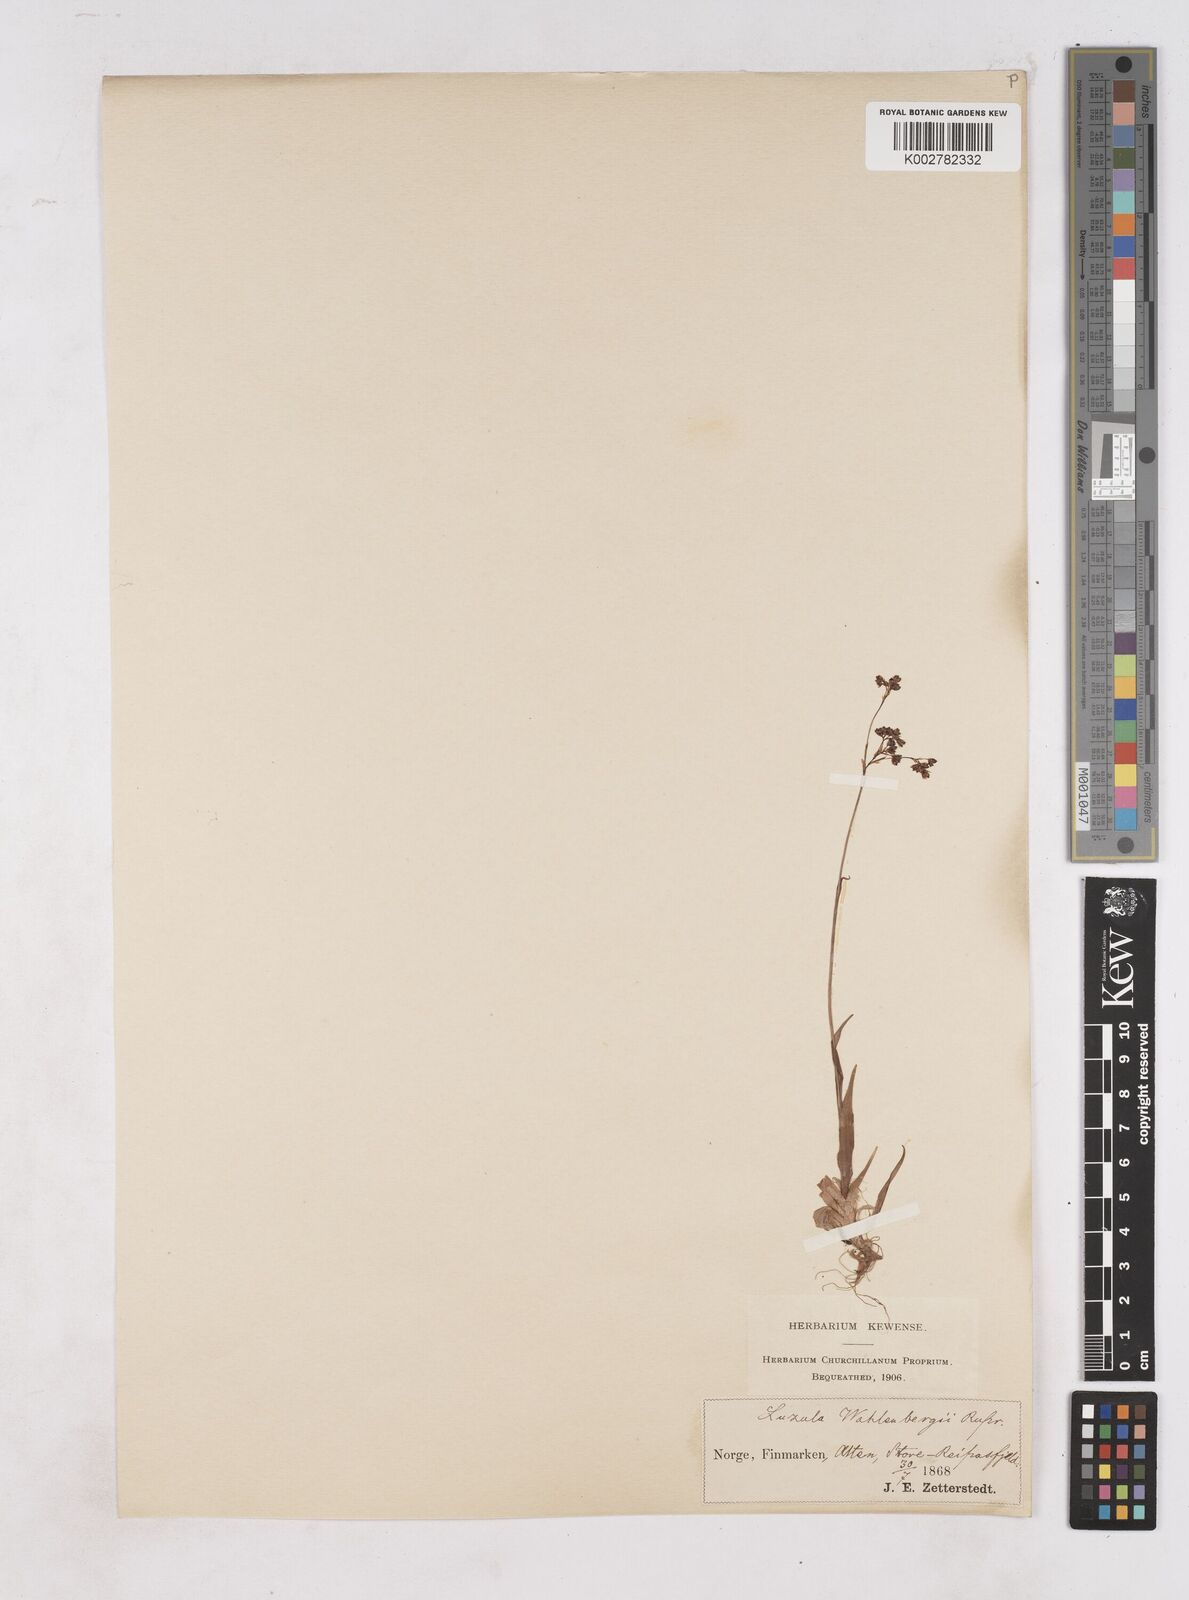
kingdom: Plantae
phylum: Tracheophyta
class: Liliopsida
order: Poales
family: Juncaceae
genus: Luzula
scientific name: Luzula alpinopilosa
